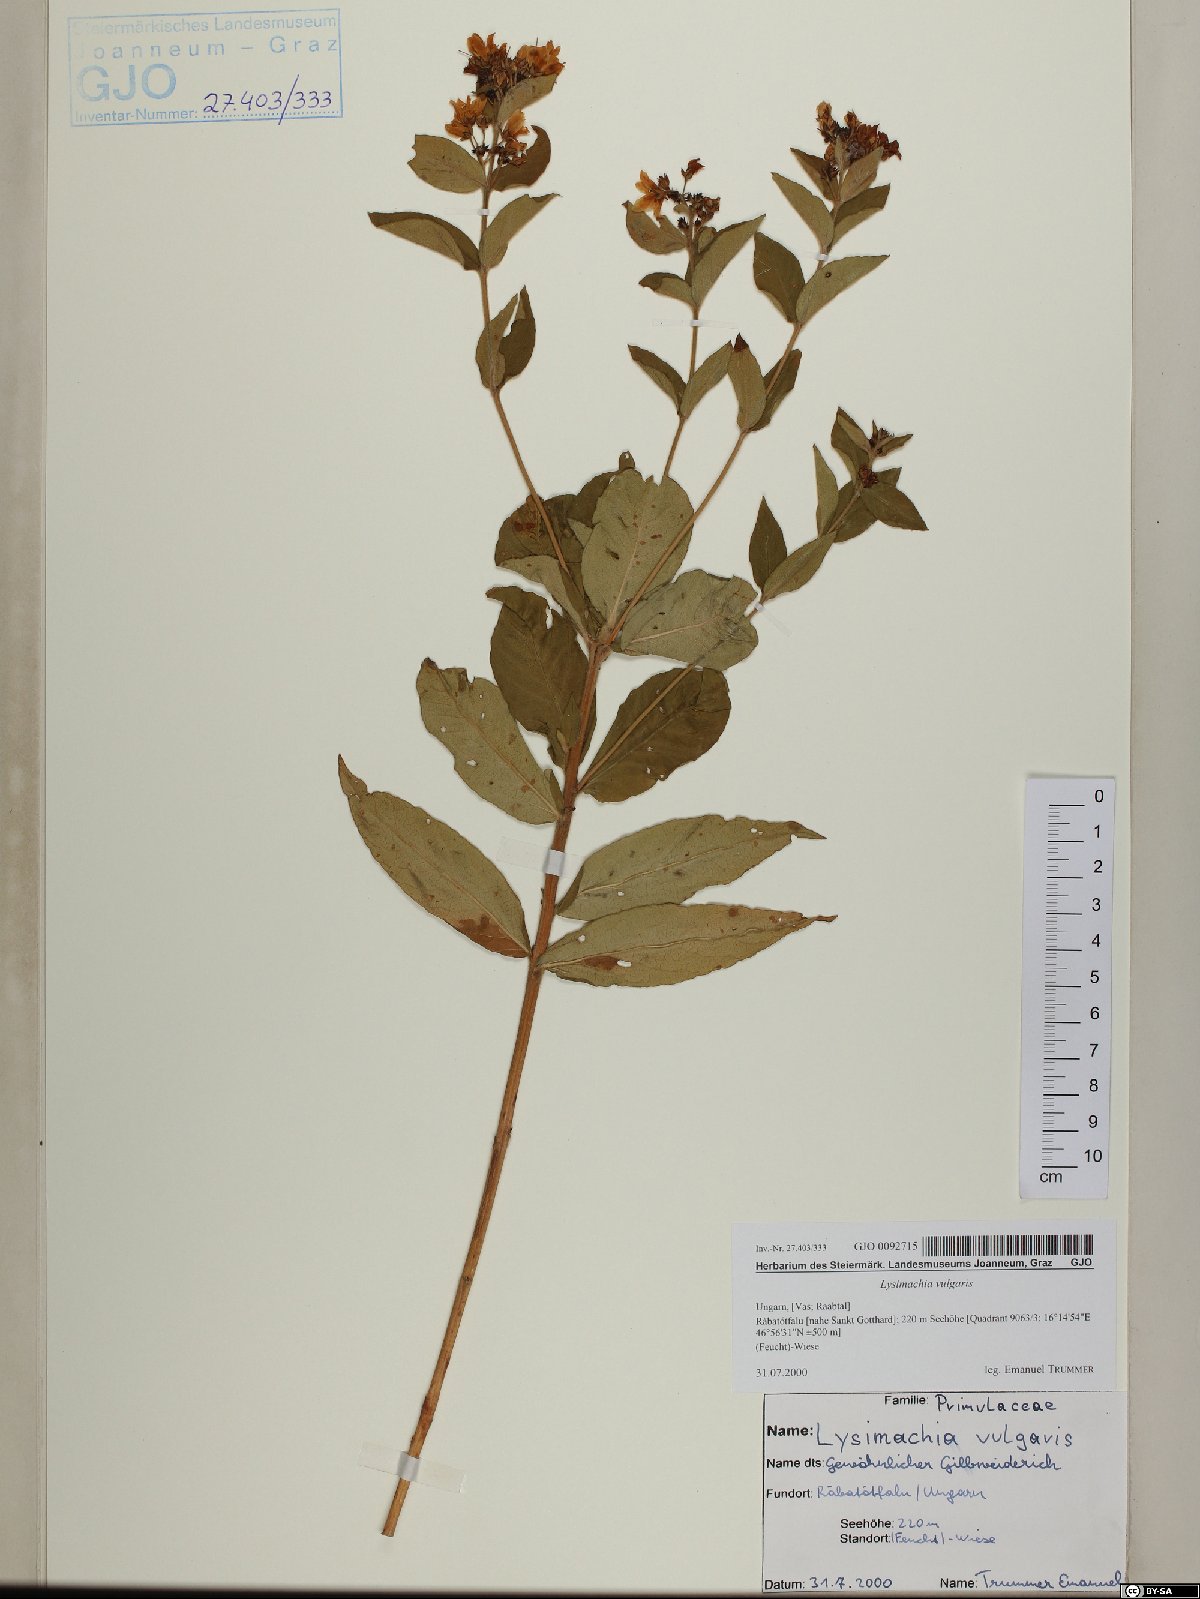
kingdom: Plantae
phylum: Tracheophyta
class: Magnoliopsida
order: Ericales
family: Primulaceae
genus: Lysimachia
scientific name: Lysimachia vulgaris
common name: Yellow loosestrife
